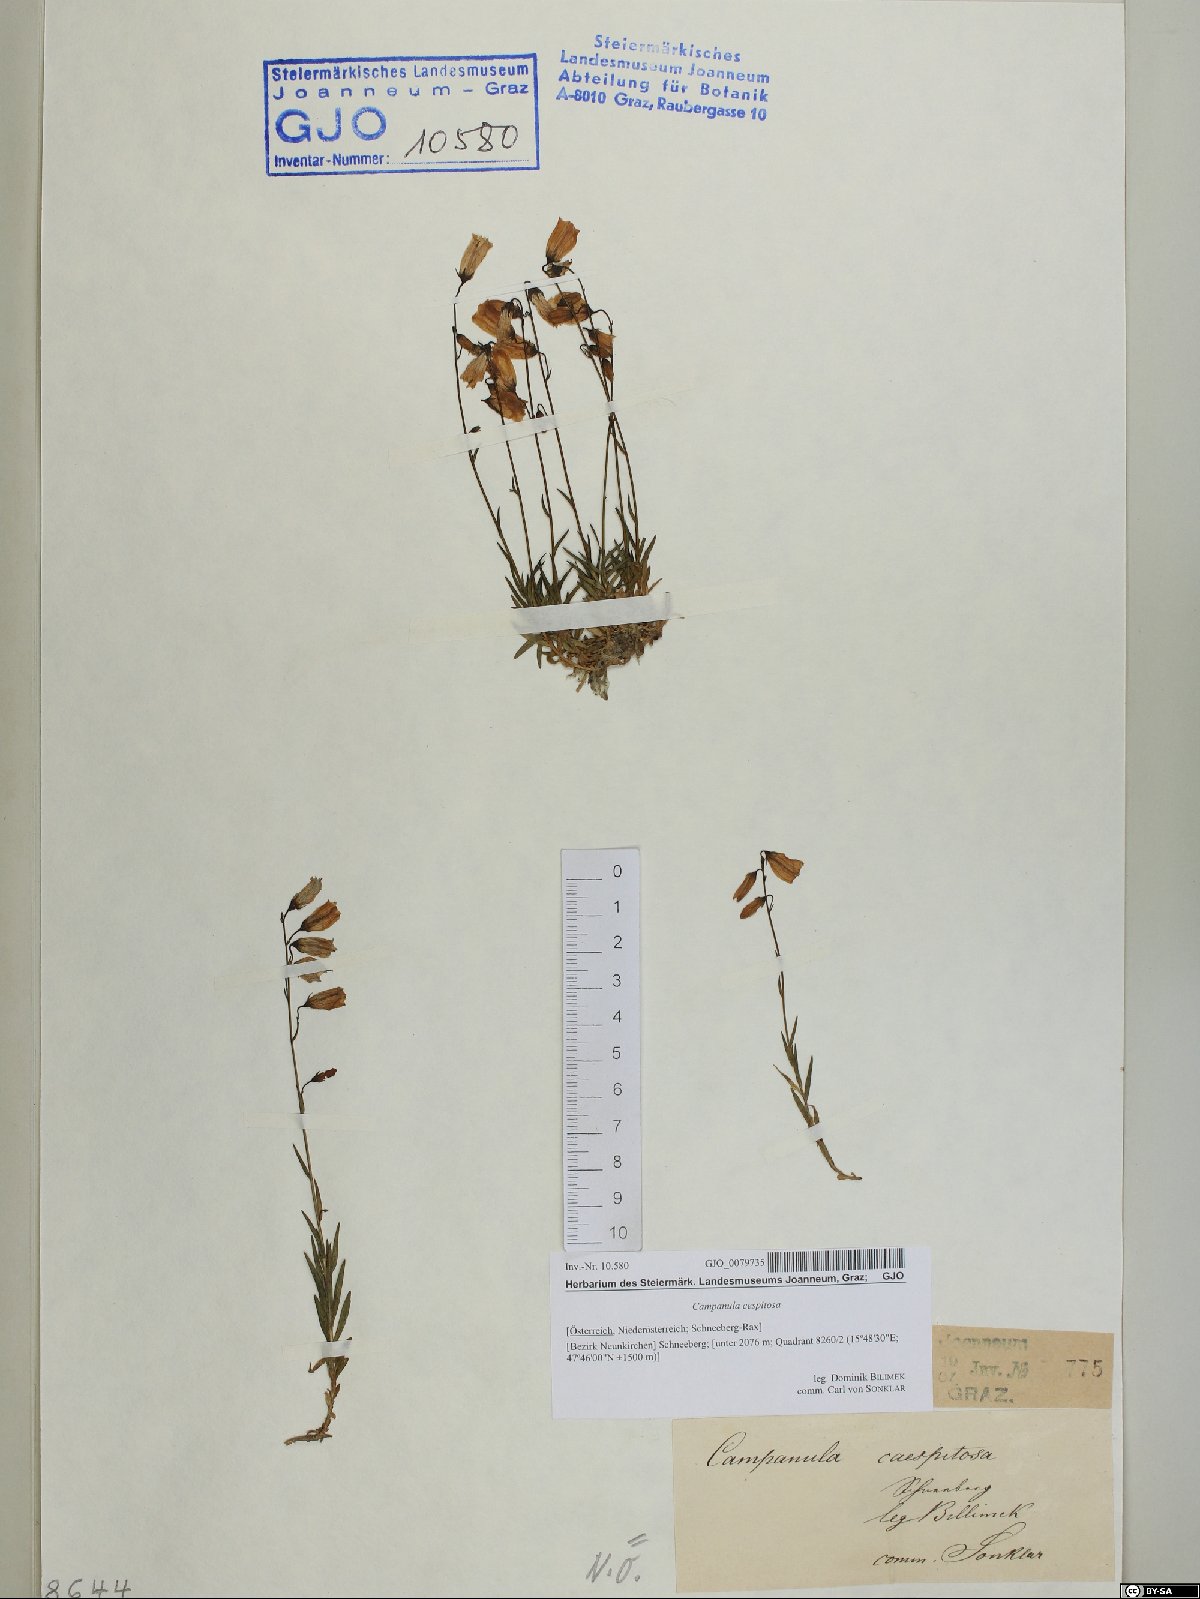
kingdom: Plantae
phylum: Tracheophyta
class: Magnoliopsida
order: Asterales
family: Campanulaceae
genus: Campanula
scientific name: Campanula cespitosa
